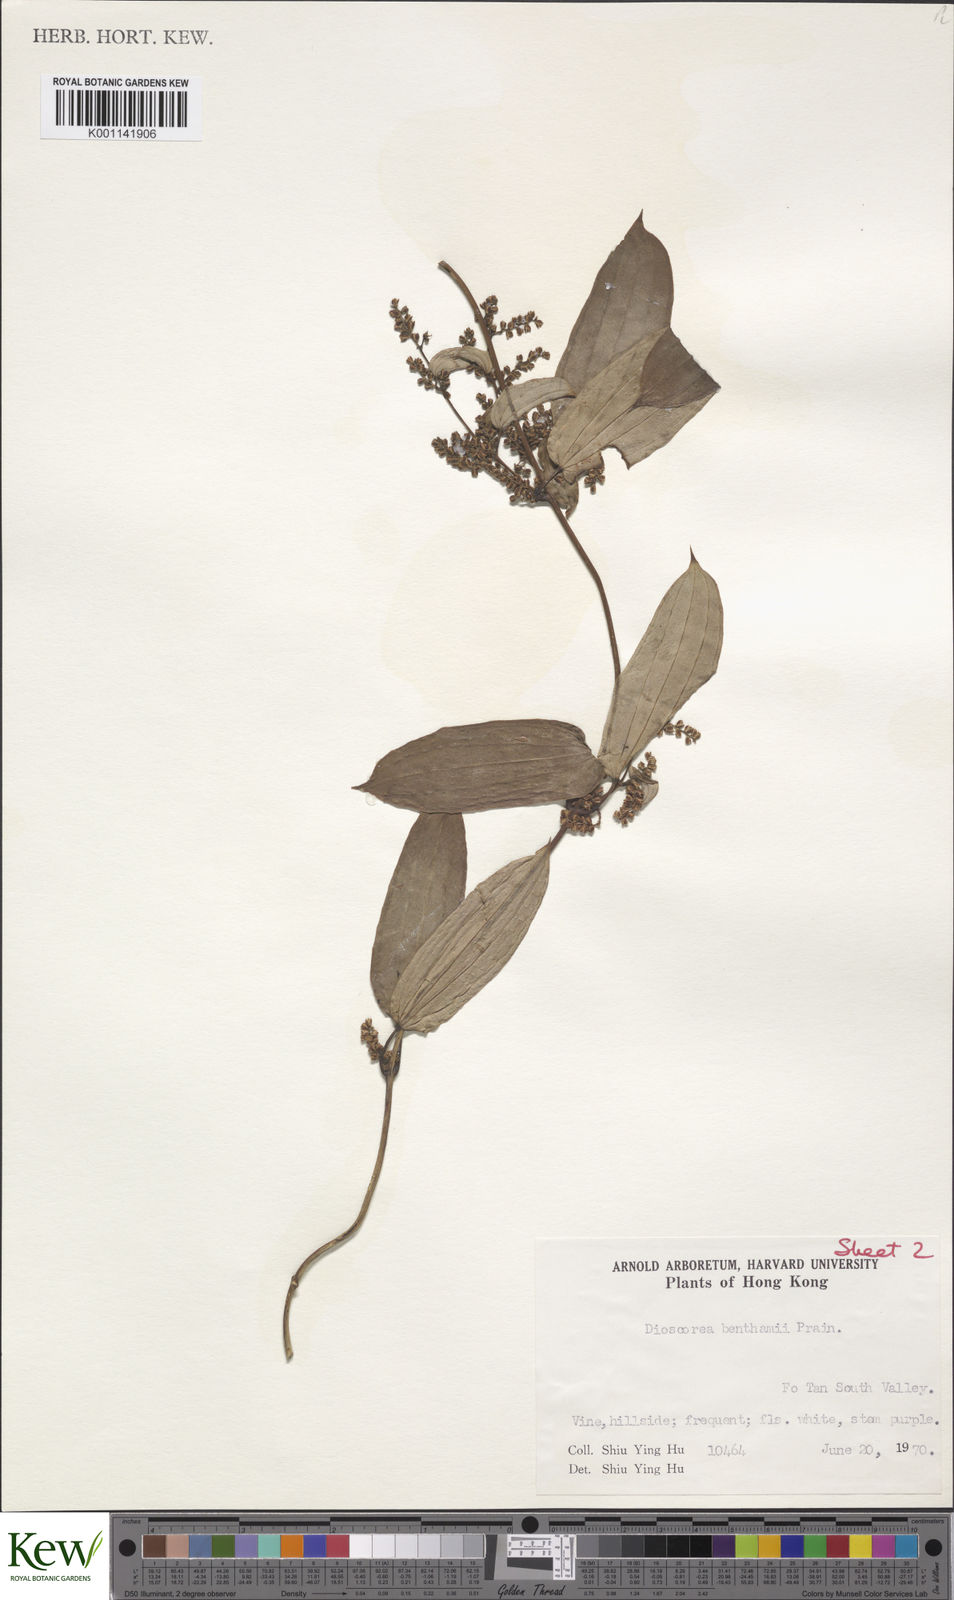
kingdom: Plantae
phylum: Tracheophyta
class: Liliopsida
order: Dioscoreales
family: Dioscoreaceae
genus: Dioscorea
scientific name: Dioscorea benthamii
